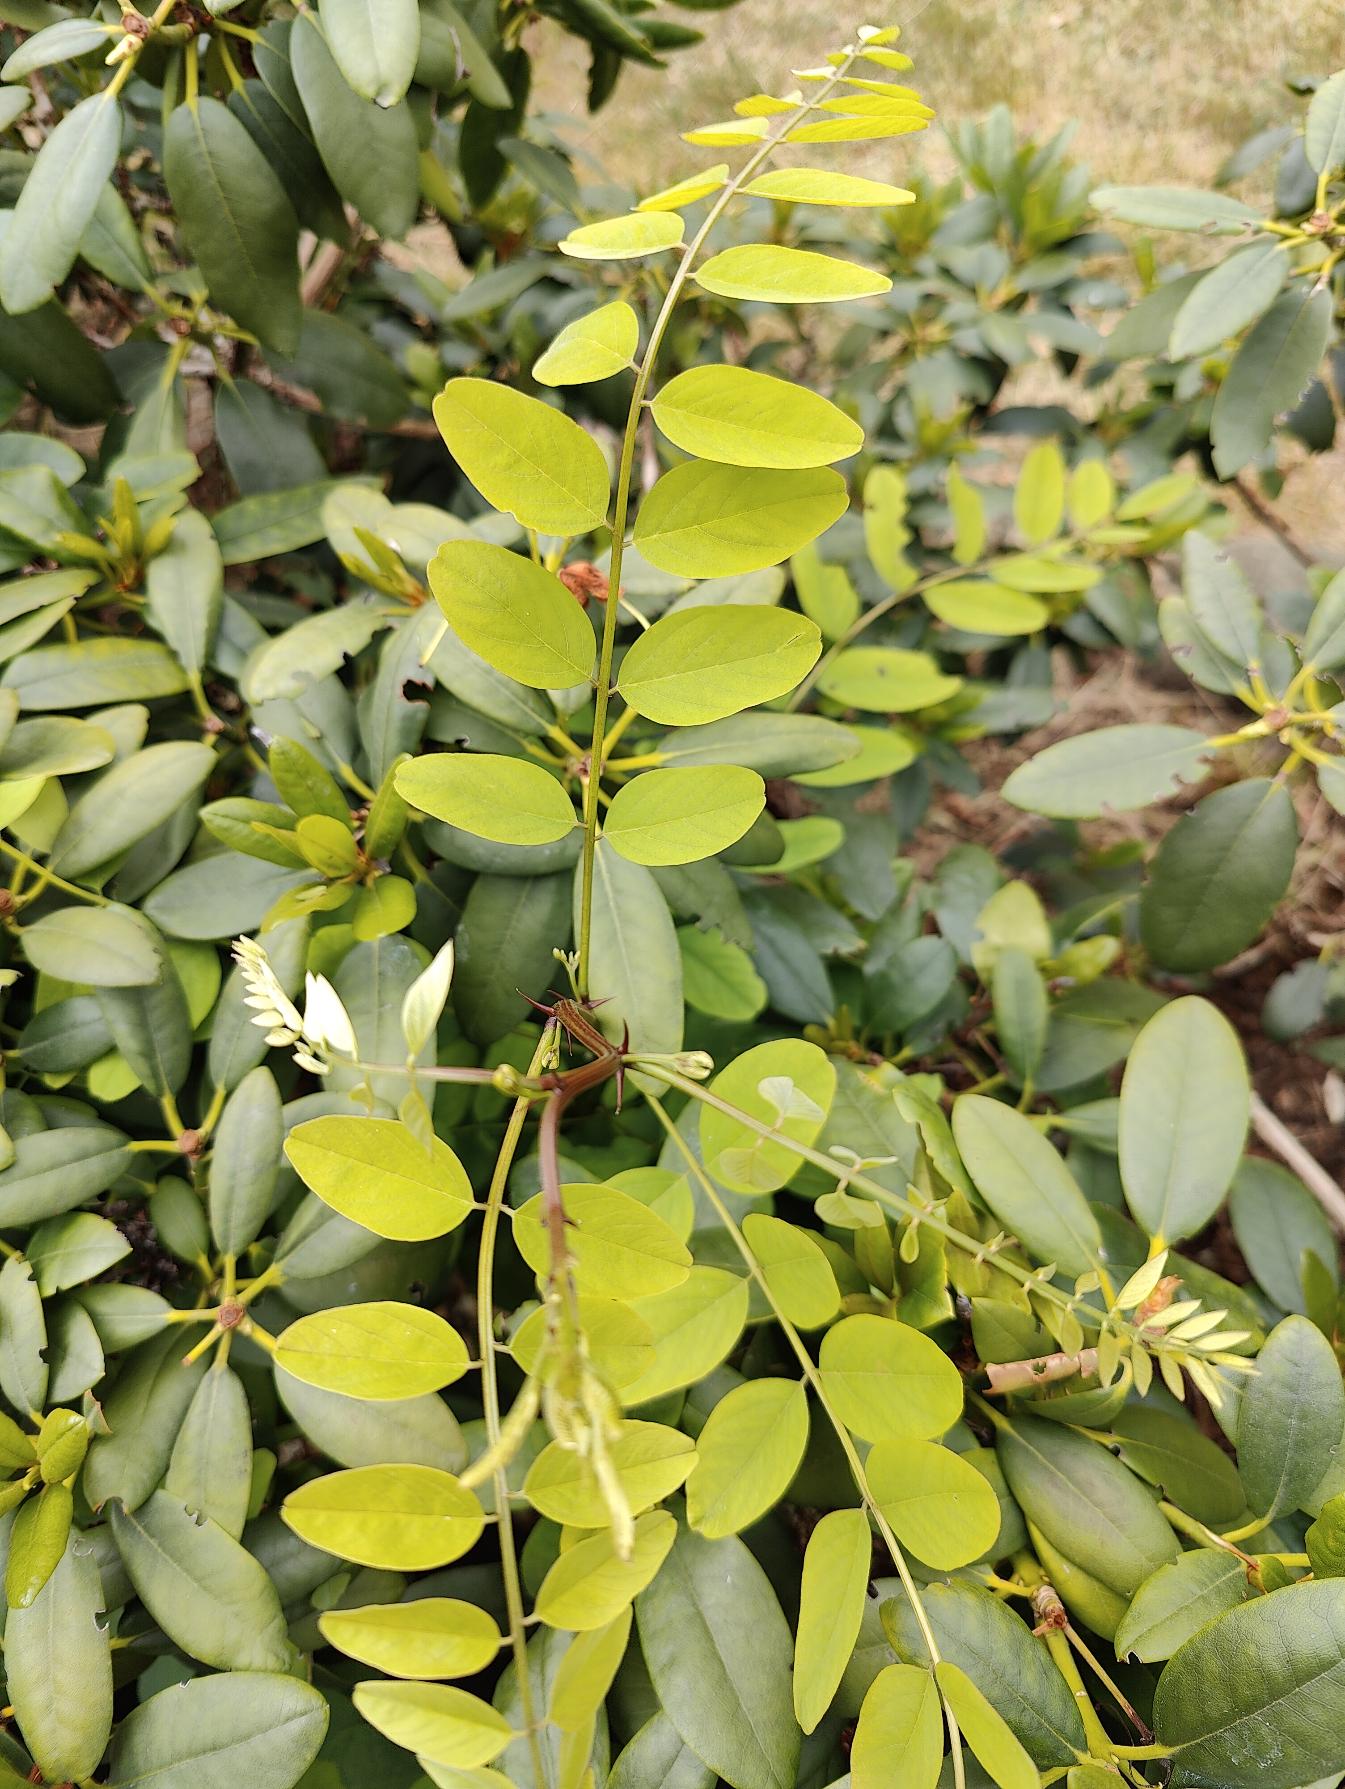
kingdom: Plantae
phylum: Tracheophyta
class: Magnoliopsida
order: Fabales
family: Fabaceae
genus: Robinia
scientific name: Robinia pseudoacacia
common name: Robinie
